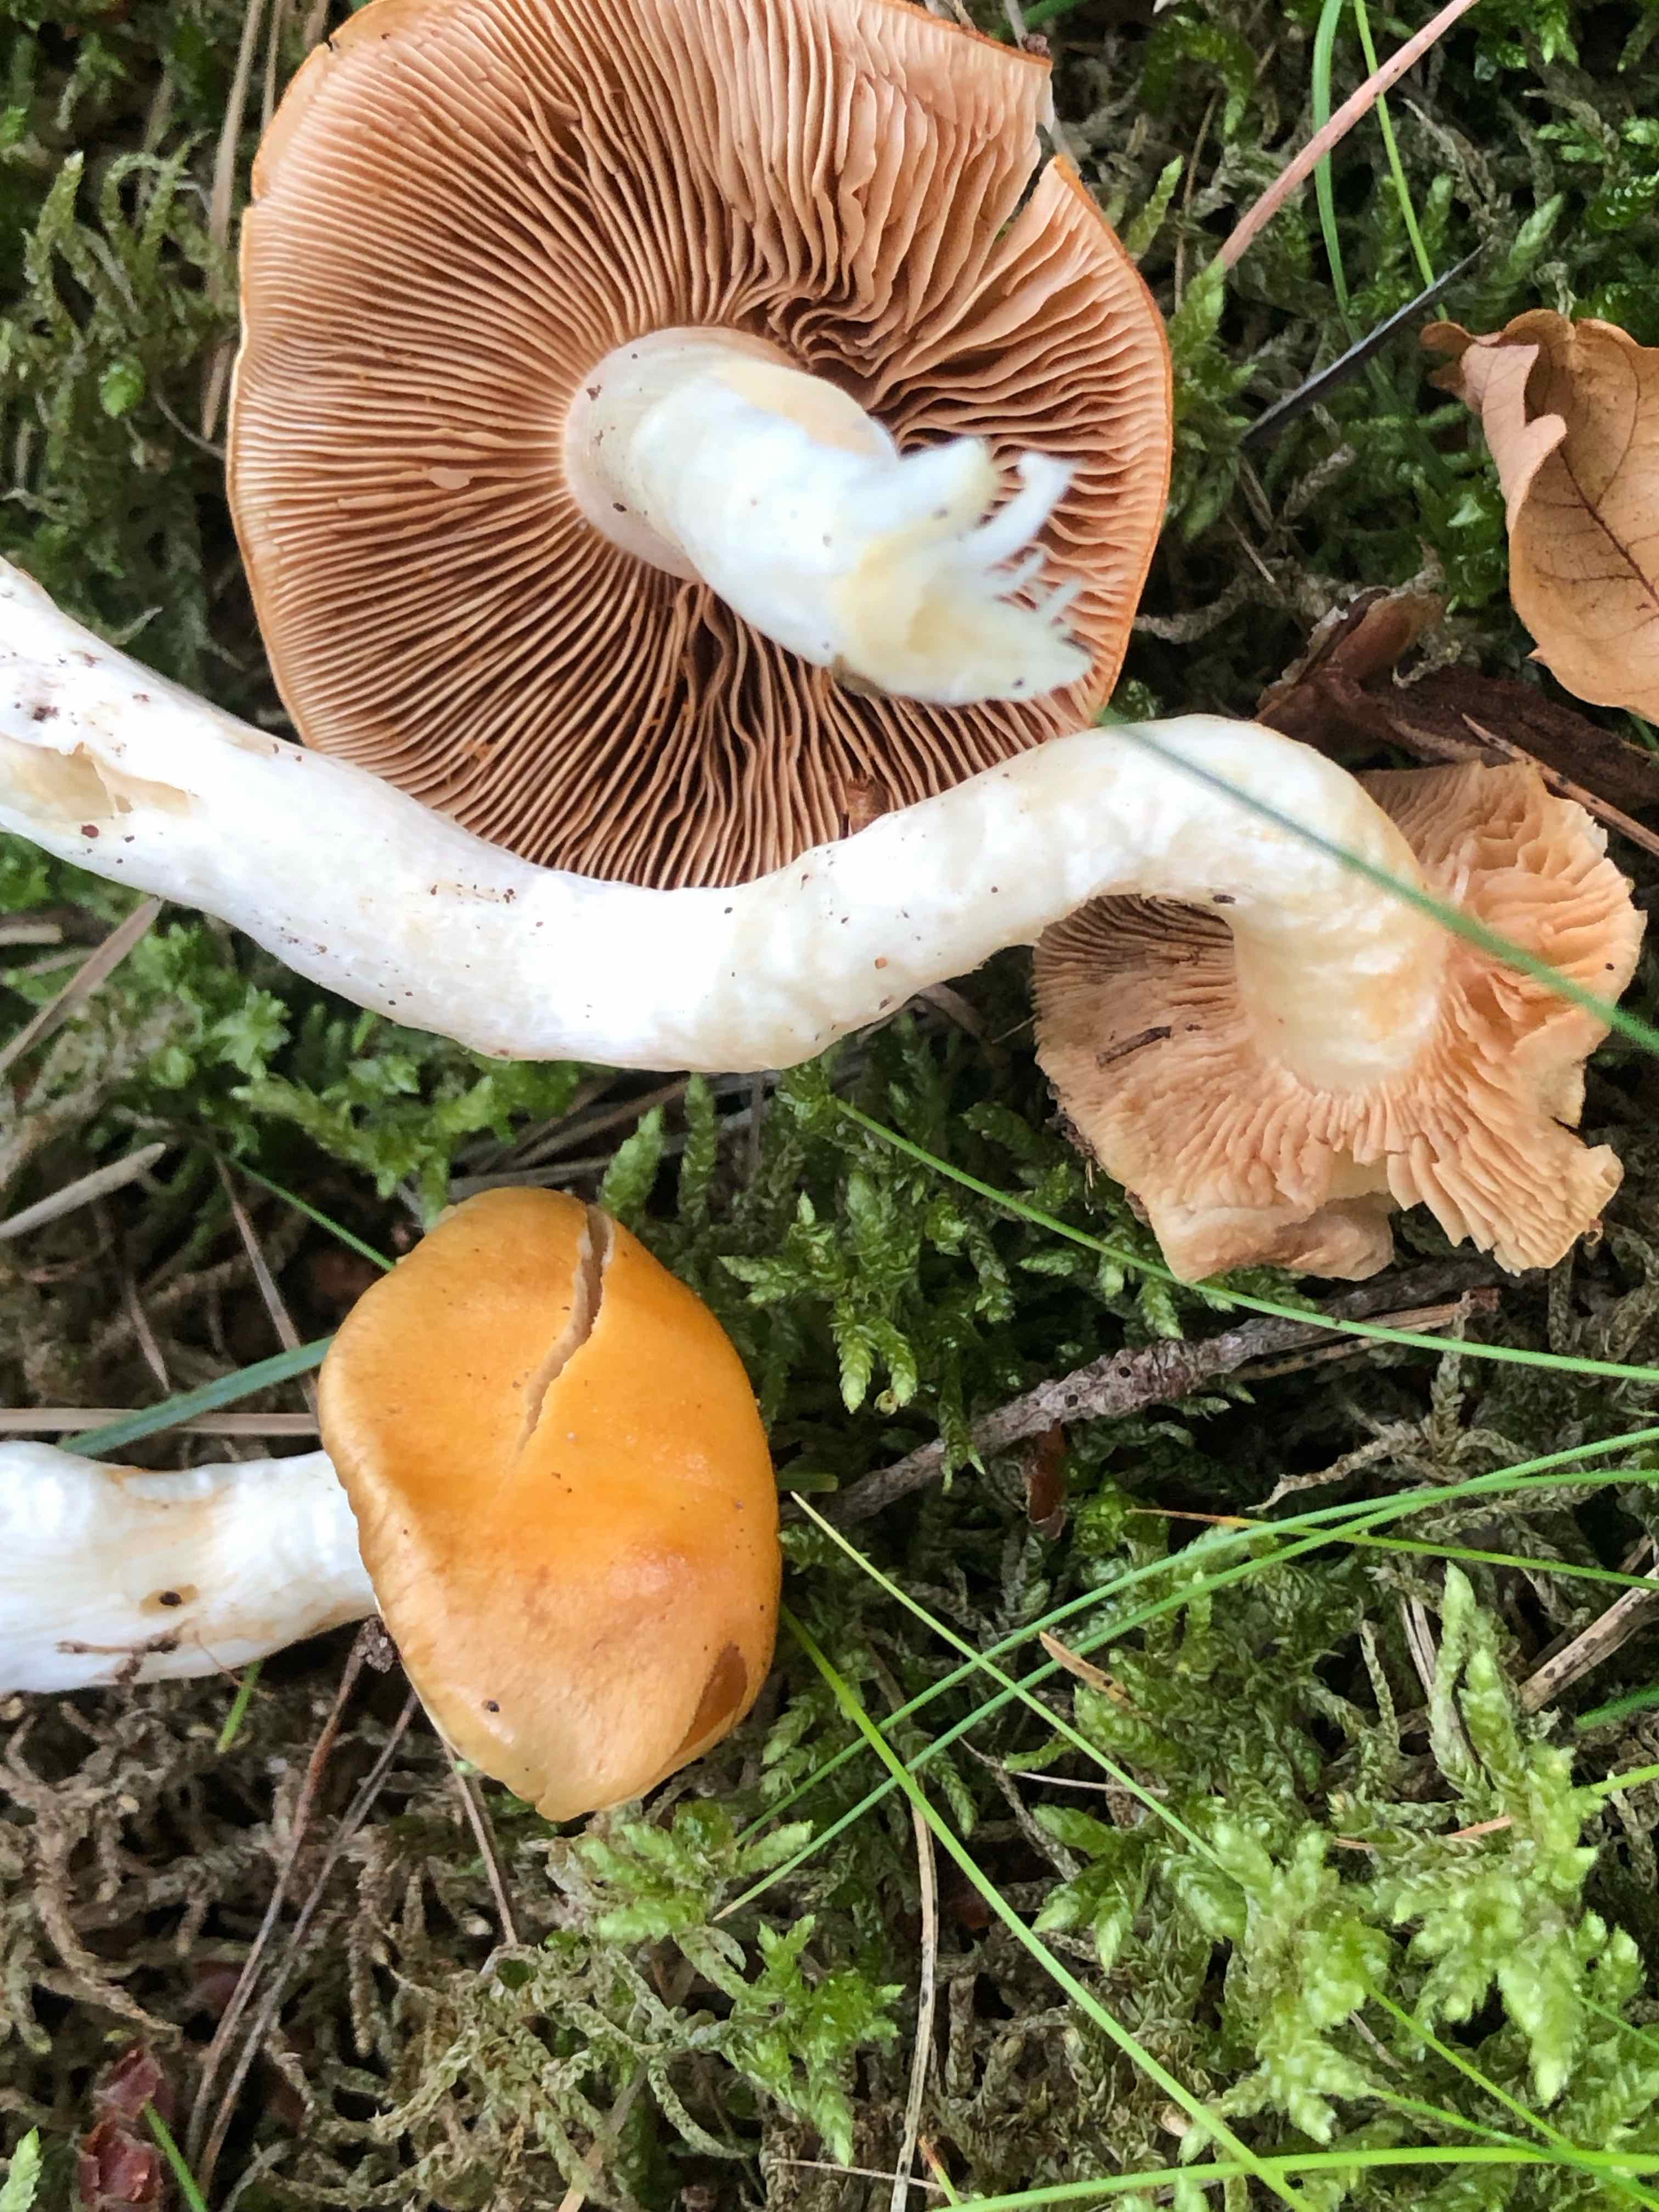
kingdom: Fungi
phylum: Basidiomycota
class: Agaricomycetes
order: Agaricales
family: Cortinariaceae
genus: Thaxterogaster
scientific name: Thaxterogaster
